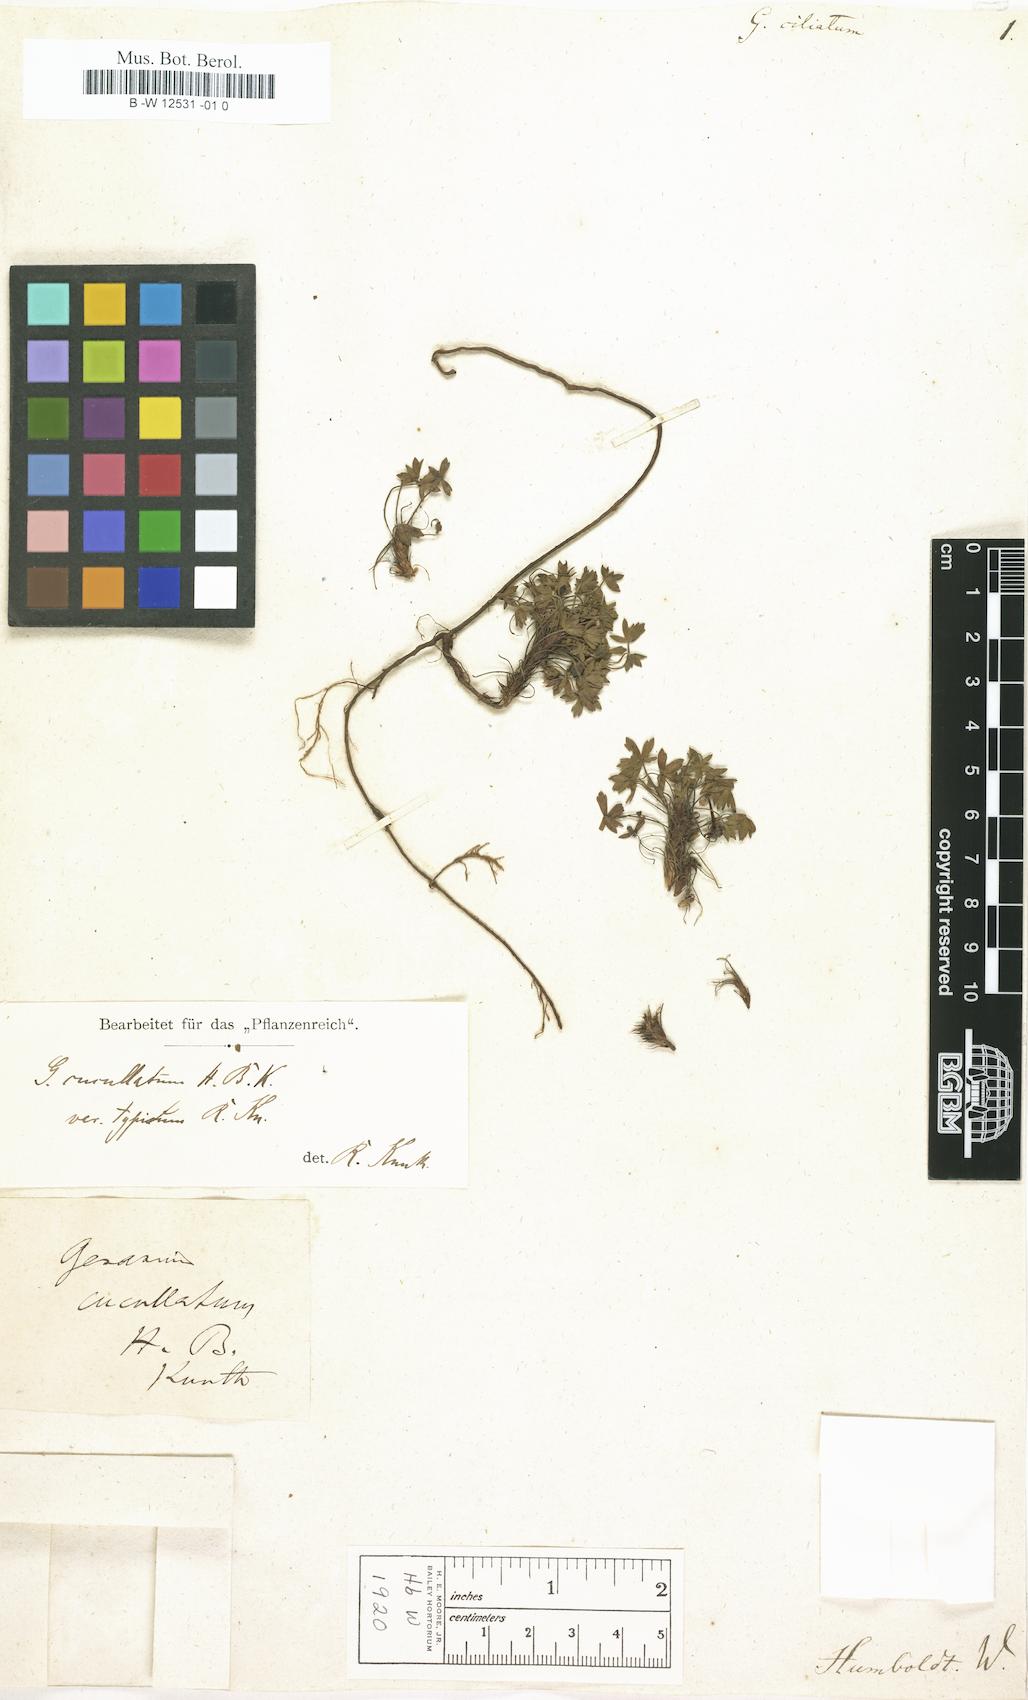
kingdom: Plantae
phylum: Tracheophyta
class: Magnoliopsida
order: Geraniales
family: Geraniaceae
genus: Geranium
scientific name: Geranium sibbaldioides
